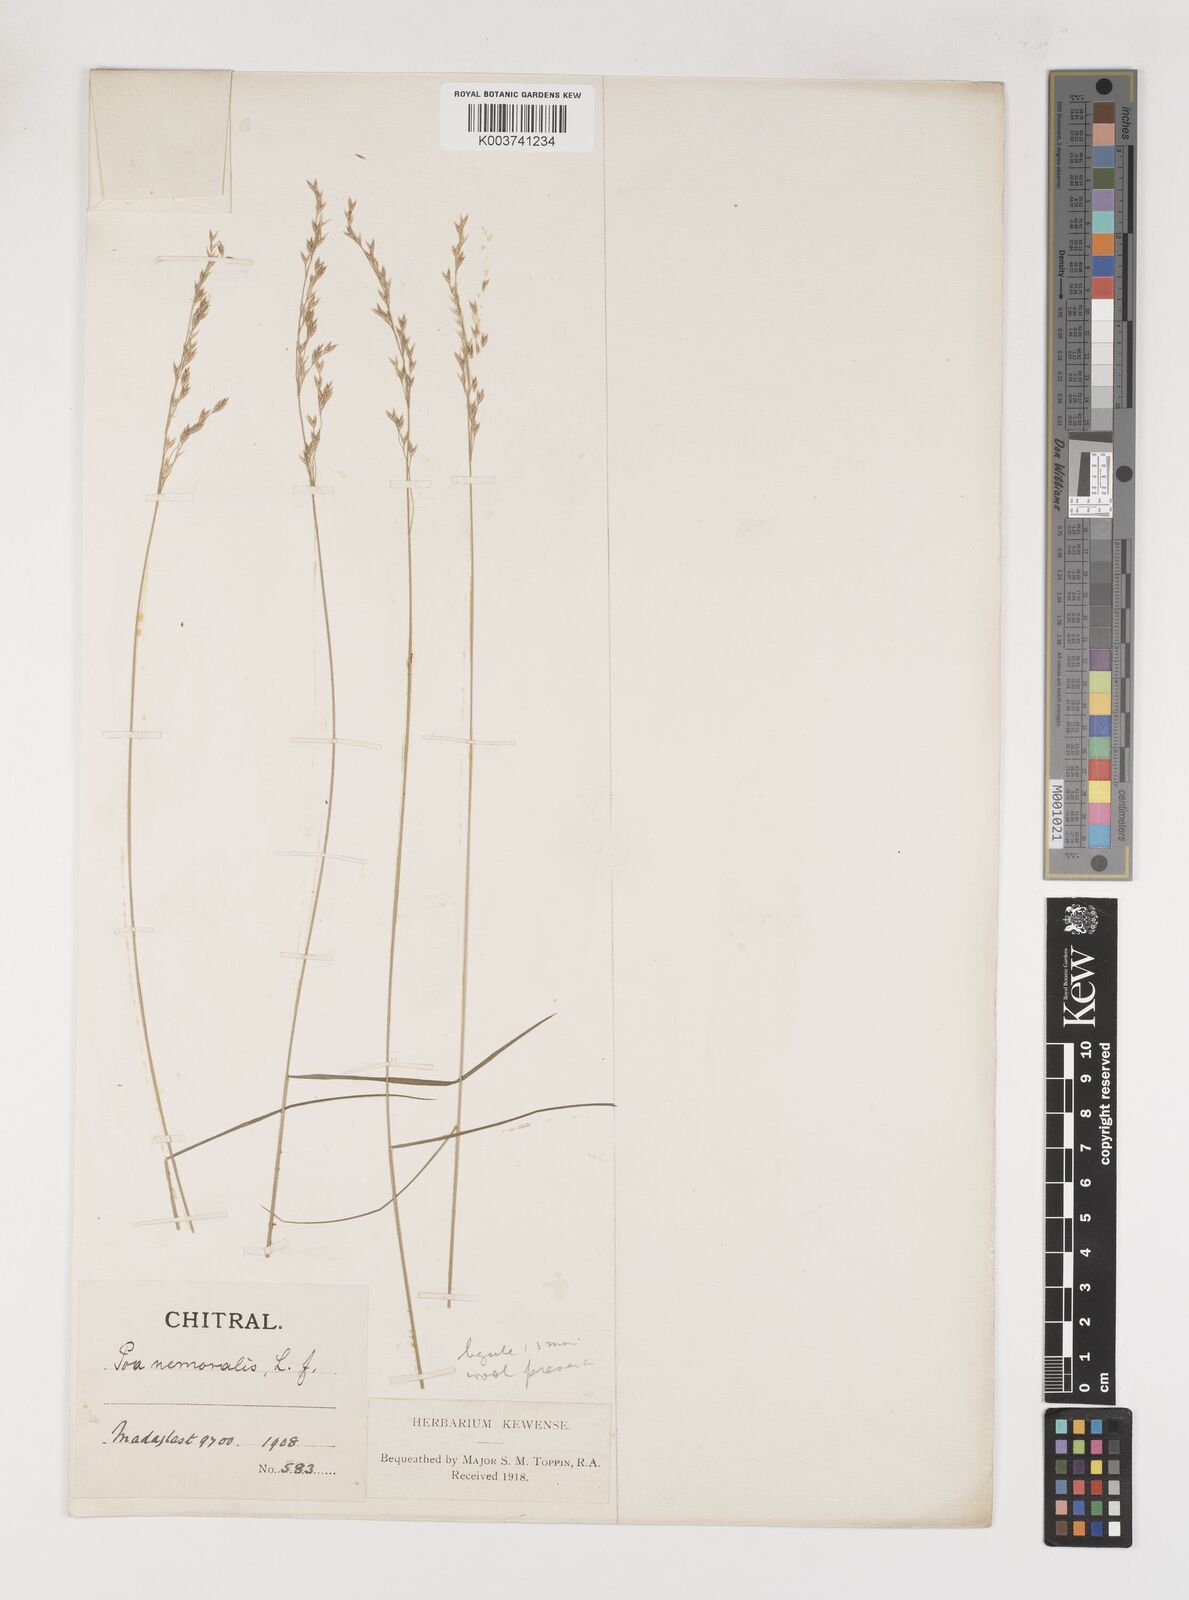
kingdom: Plantae
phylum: Tracheophyta
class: Liliopsida
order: Poales
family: Poaceae
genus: Poa
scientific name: Poa araratica
